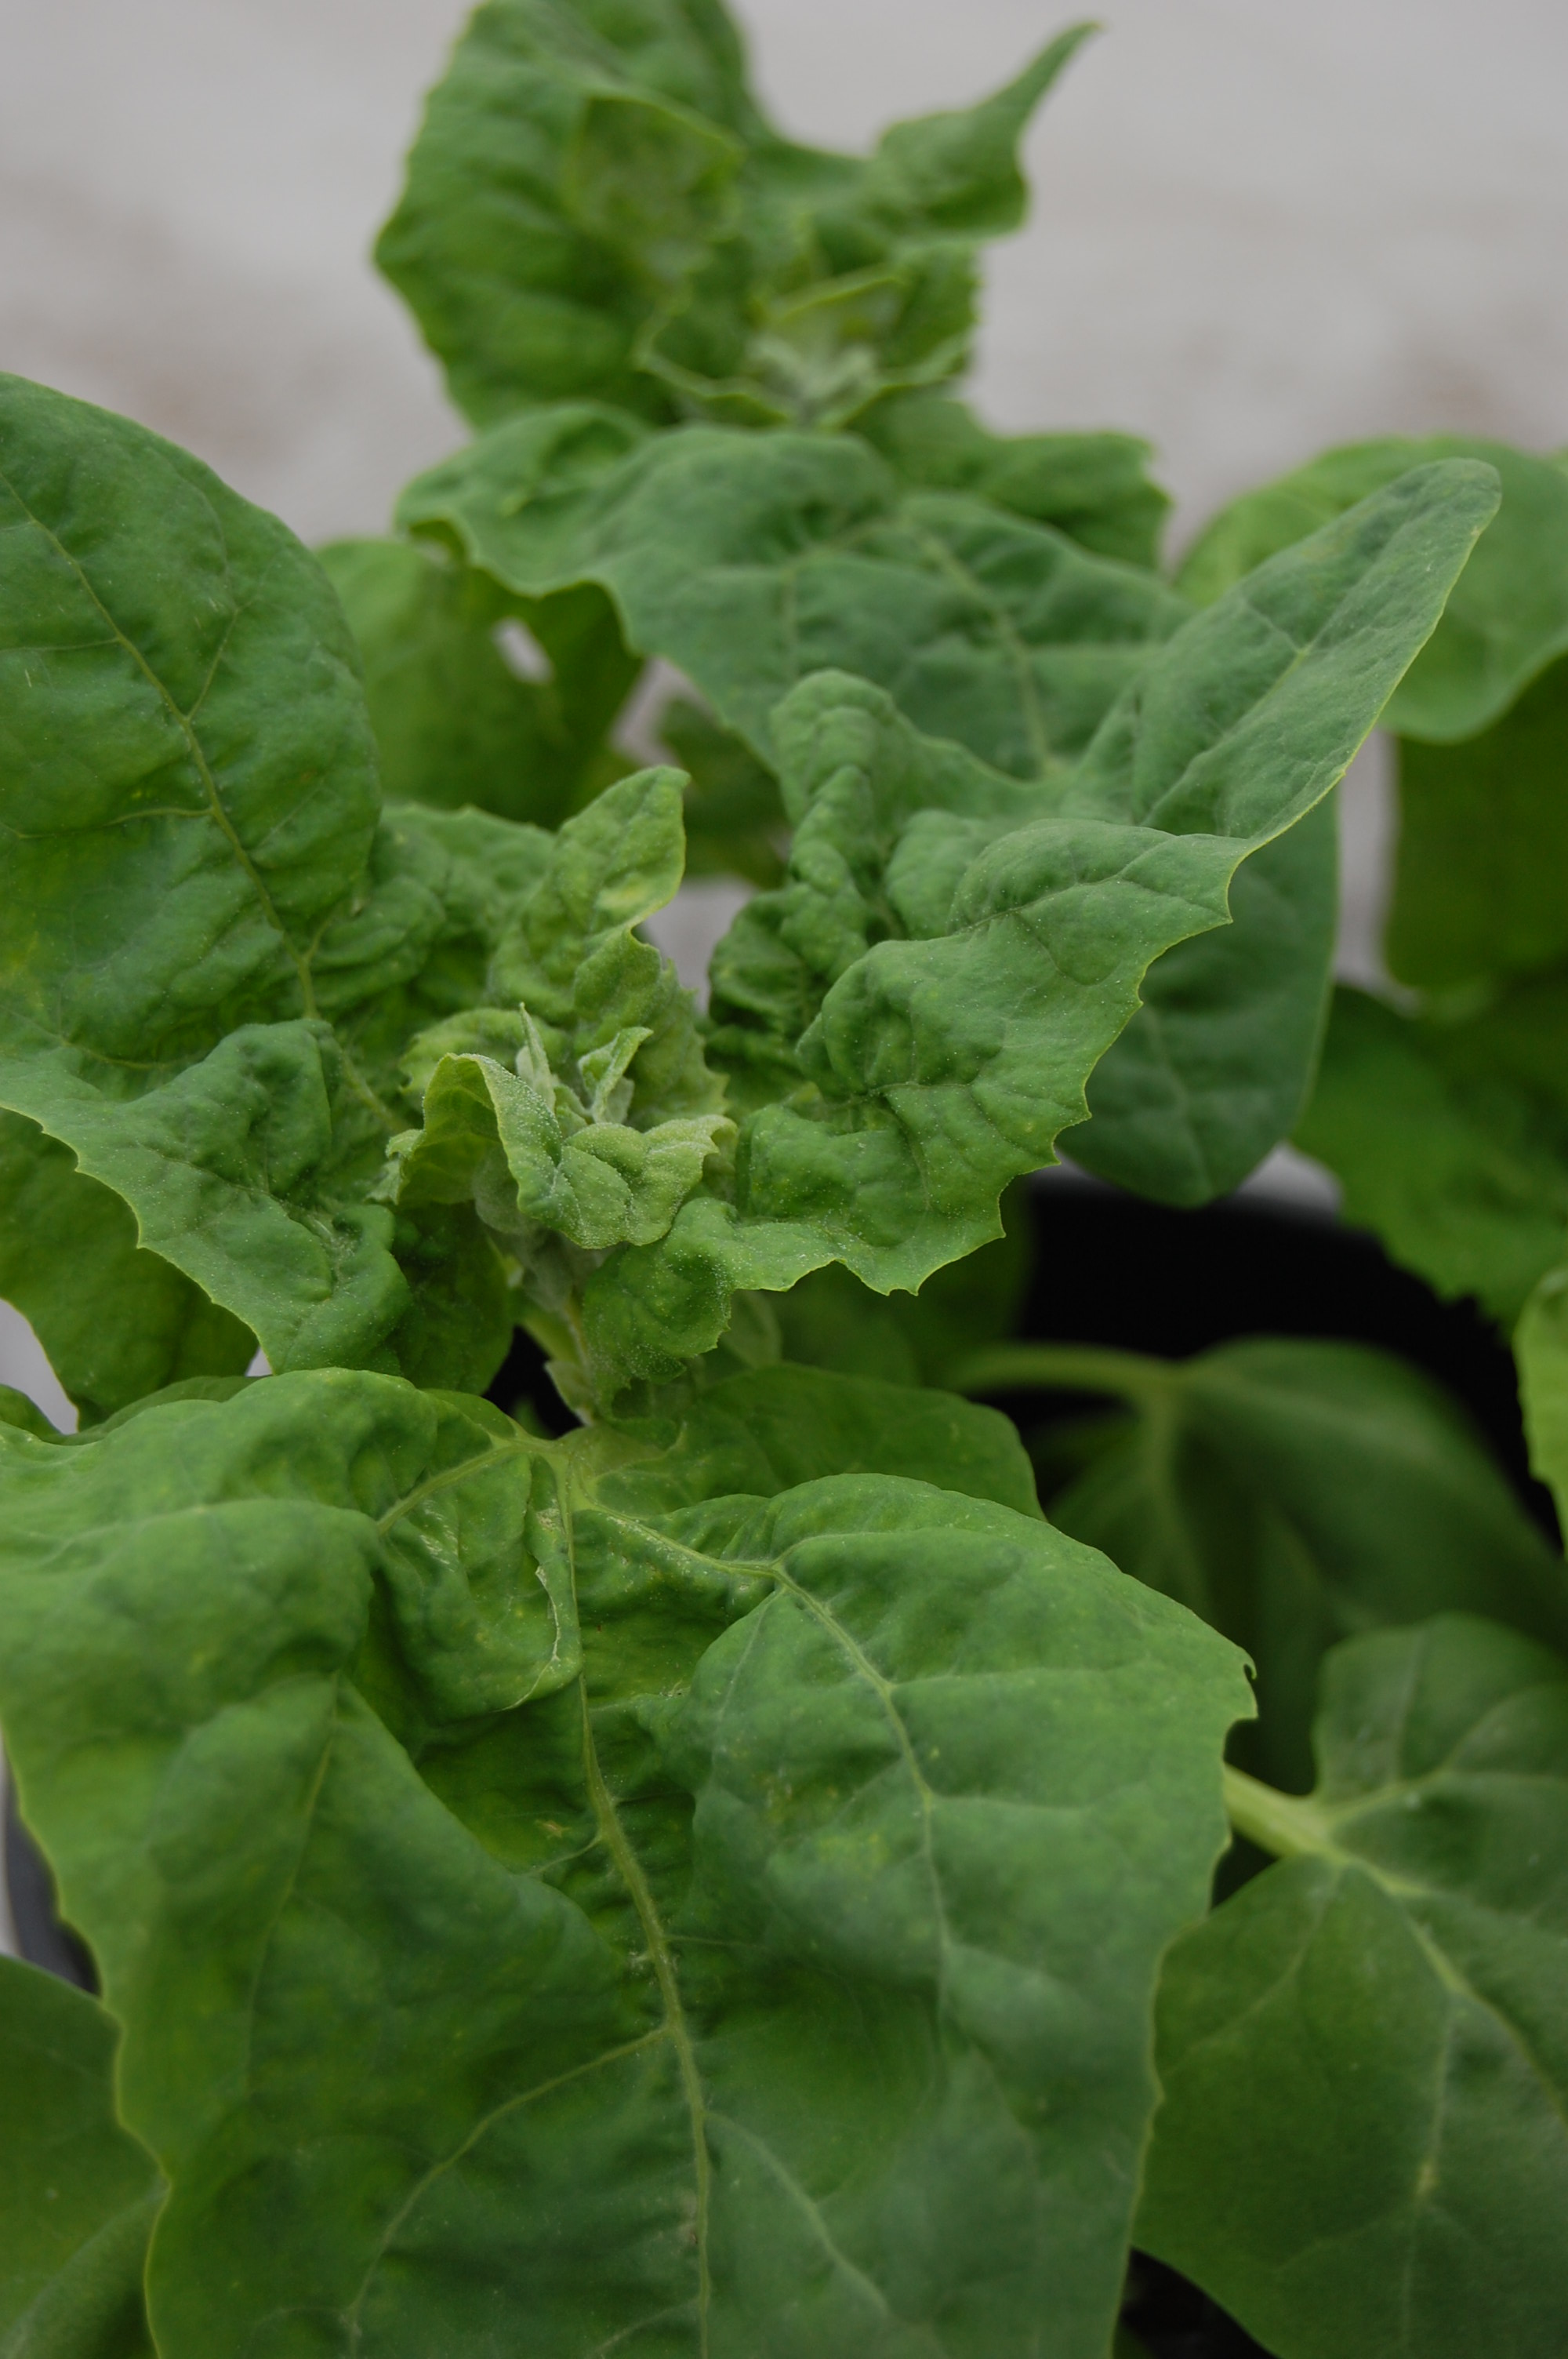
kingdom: Plantae
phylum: Tracheophyta
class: Magnoliopsida
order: Caryophyllales
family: Amaranthaceae
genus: Atriplex
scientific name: Atriplex hortensis
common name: Garden orache
